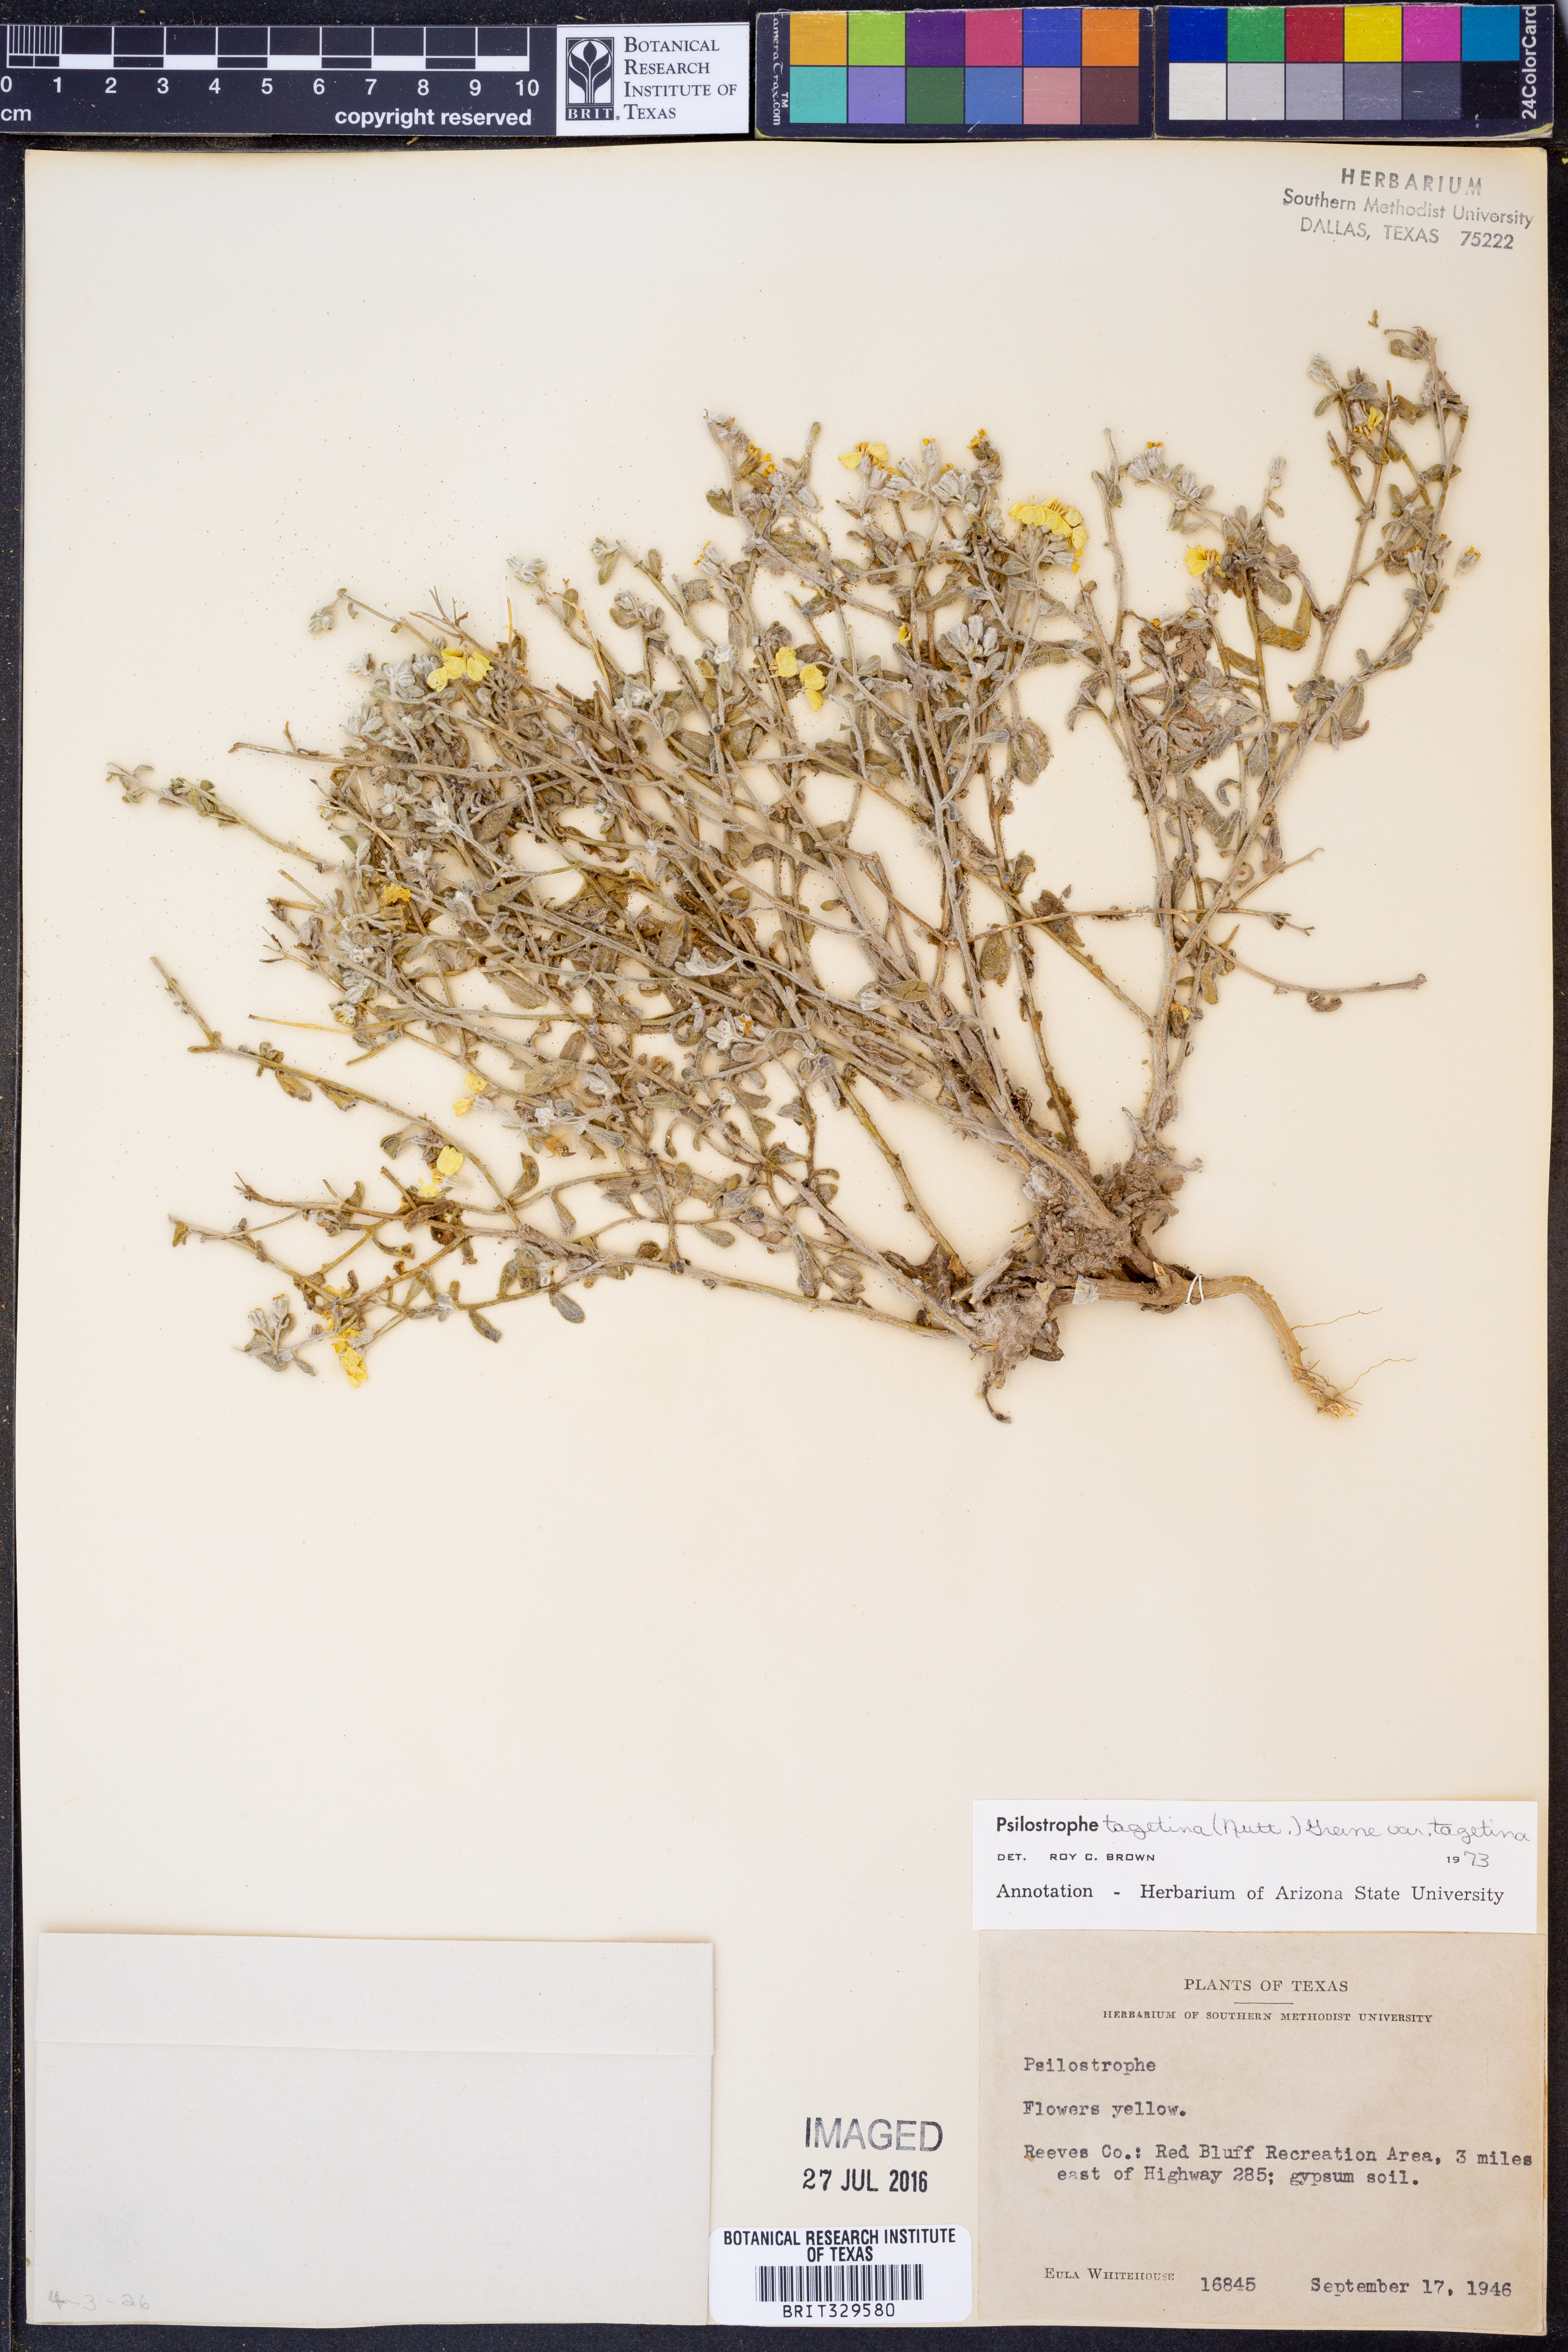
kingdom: Plantae
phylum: Tracheophyta
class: Magnoliopsida
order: Asterales
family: Asteraceae
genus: Psilostrophe
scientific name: Psilostrophe tagetina
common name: Marigold paper-flower
